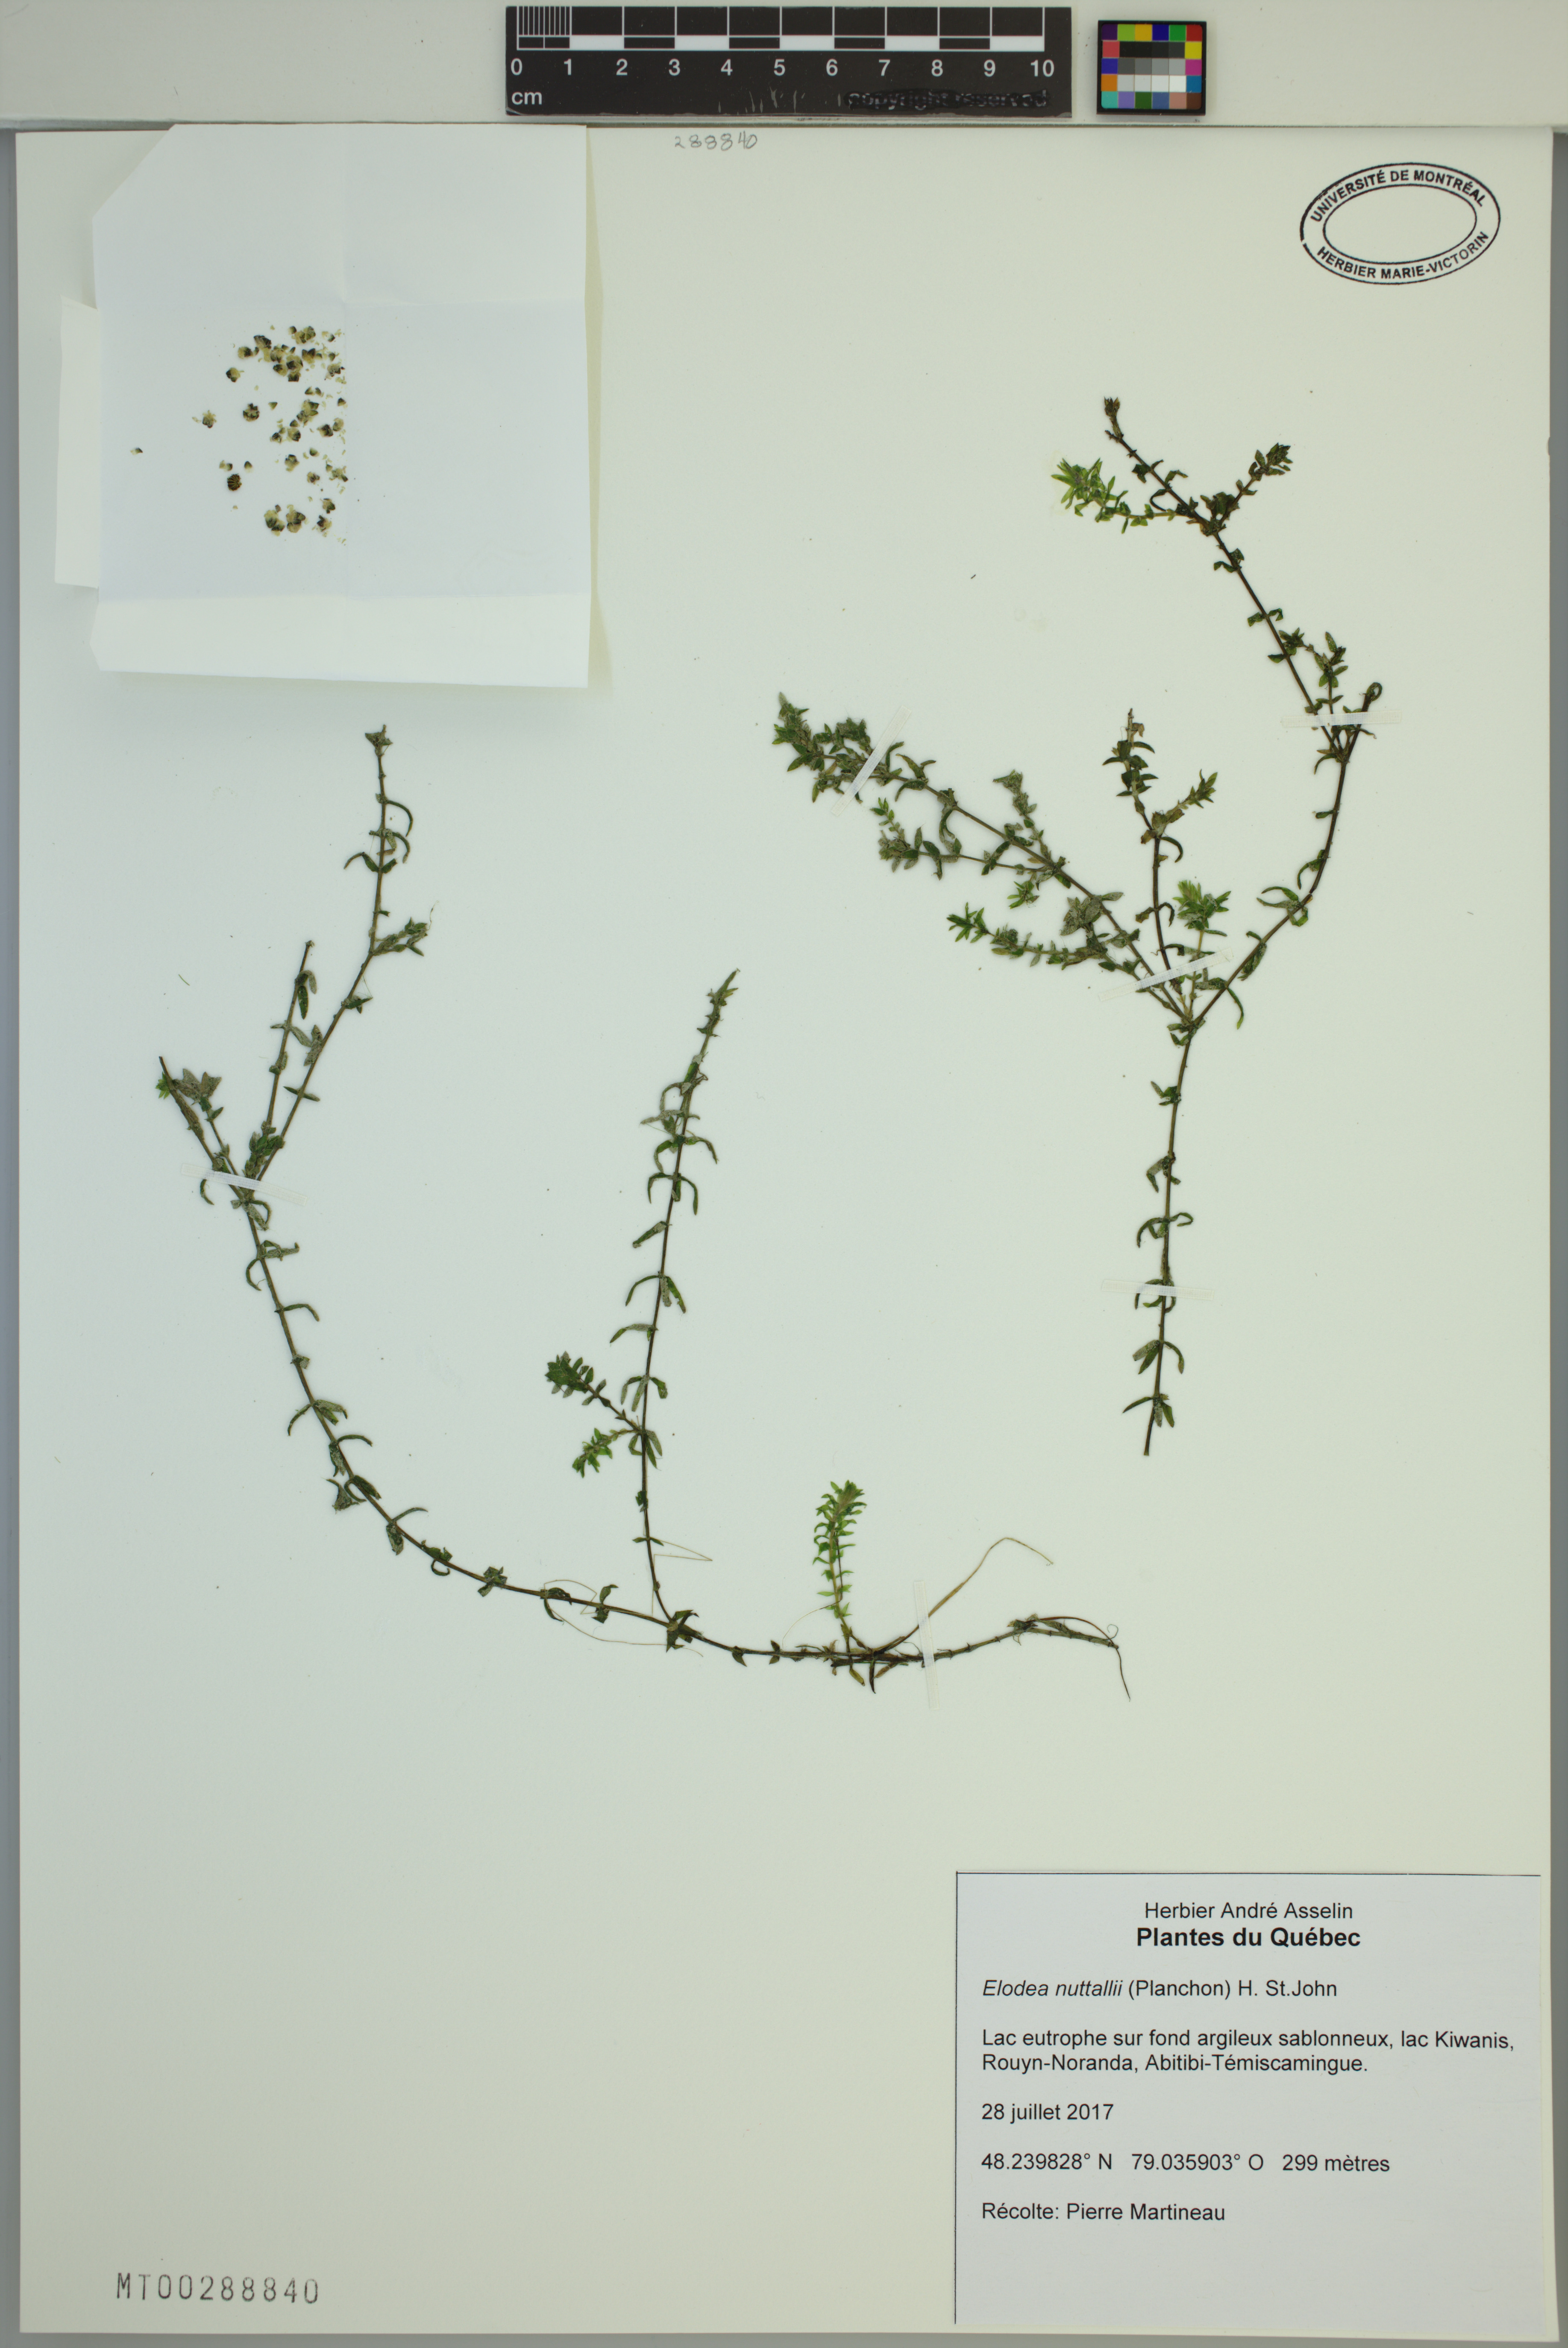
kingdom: Plantae
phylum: Tracheophyta
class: Liliopsida
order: Alismatales
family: Hydrocharitaceae
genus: Elodea
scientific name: Elodea nuttallii
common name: Nuttall's waterweed
